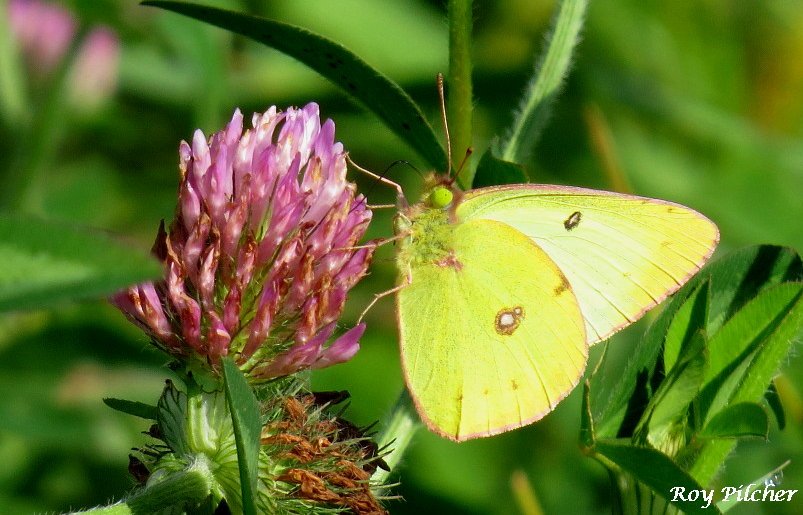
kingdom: Animalia
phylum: Arthropoda
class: Insecta
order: Lepidoptera
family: Pieridae
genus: Colias
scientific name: Colias philodice
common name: Clouded Sulphur
